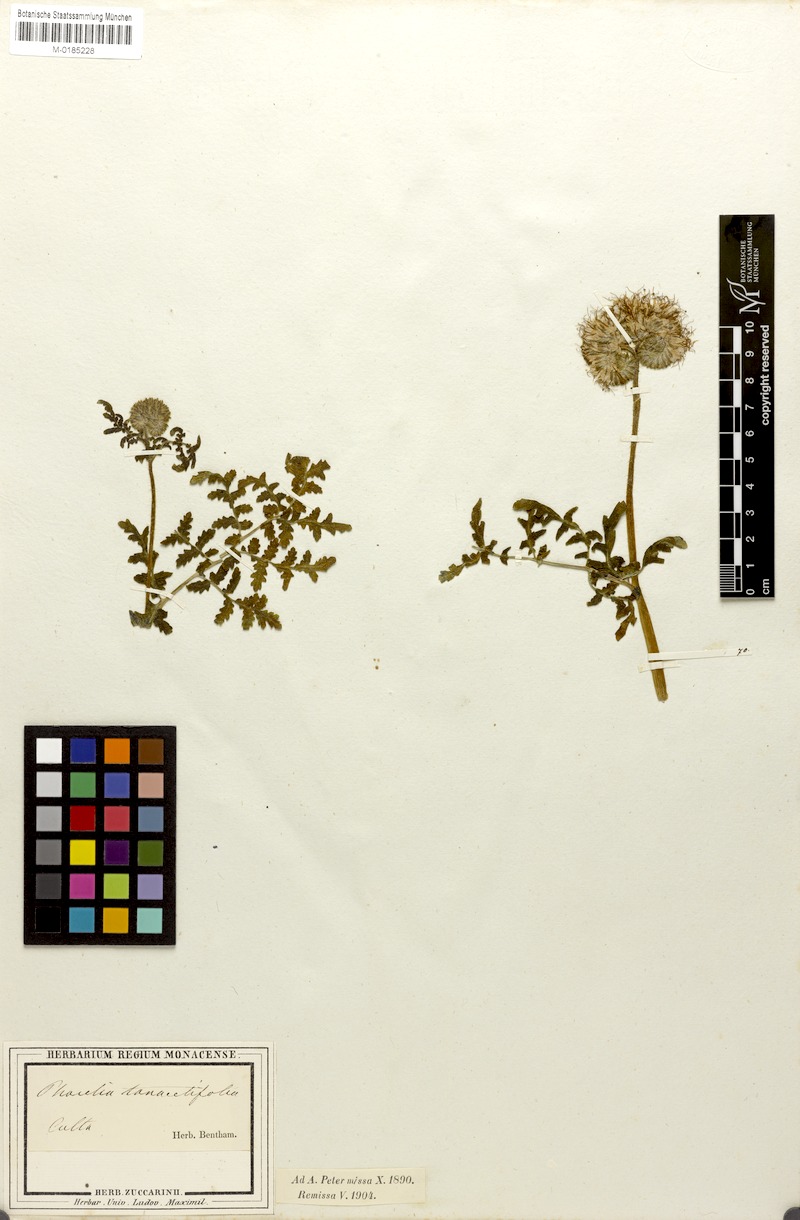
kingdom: Plantae
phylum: Tracheophyta
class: Magnoliopsida
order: Boraginales
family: Hydrophyllaceae
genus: Phacelia
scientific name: Phacelia tanacetifolia
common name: Phacelia
